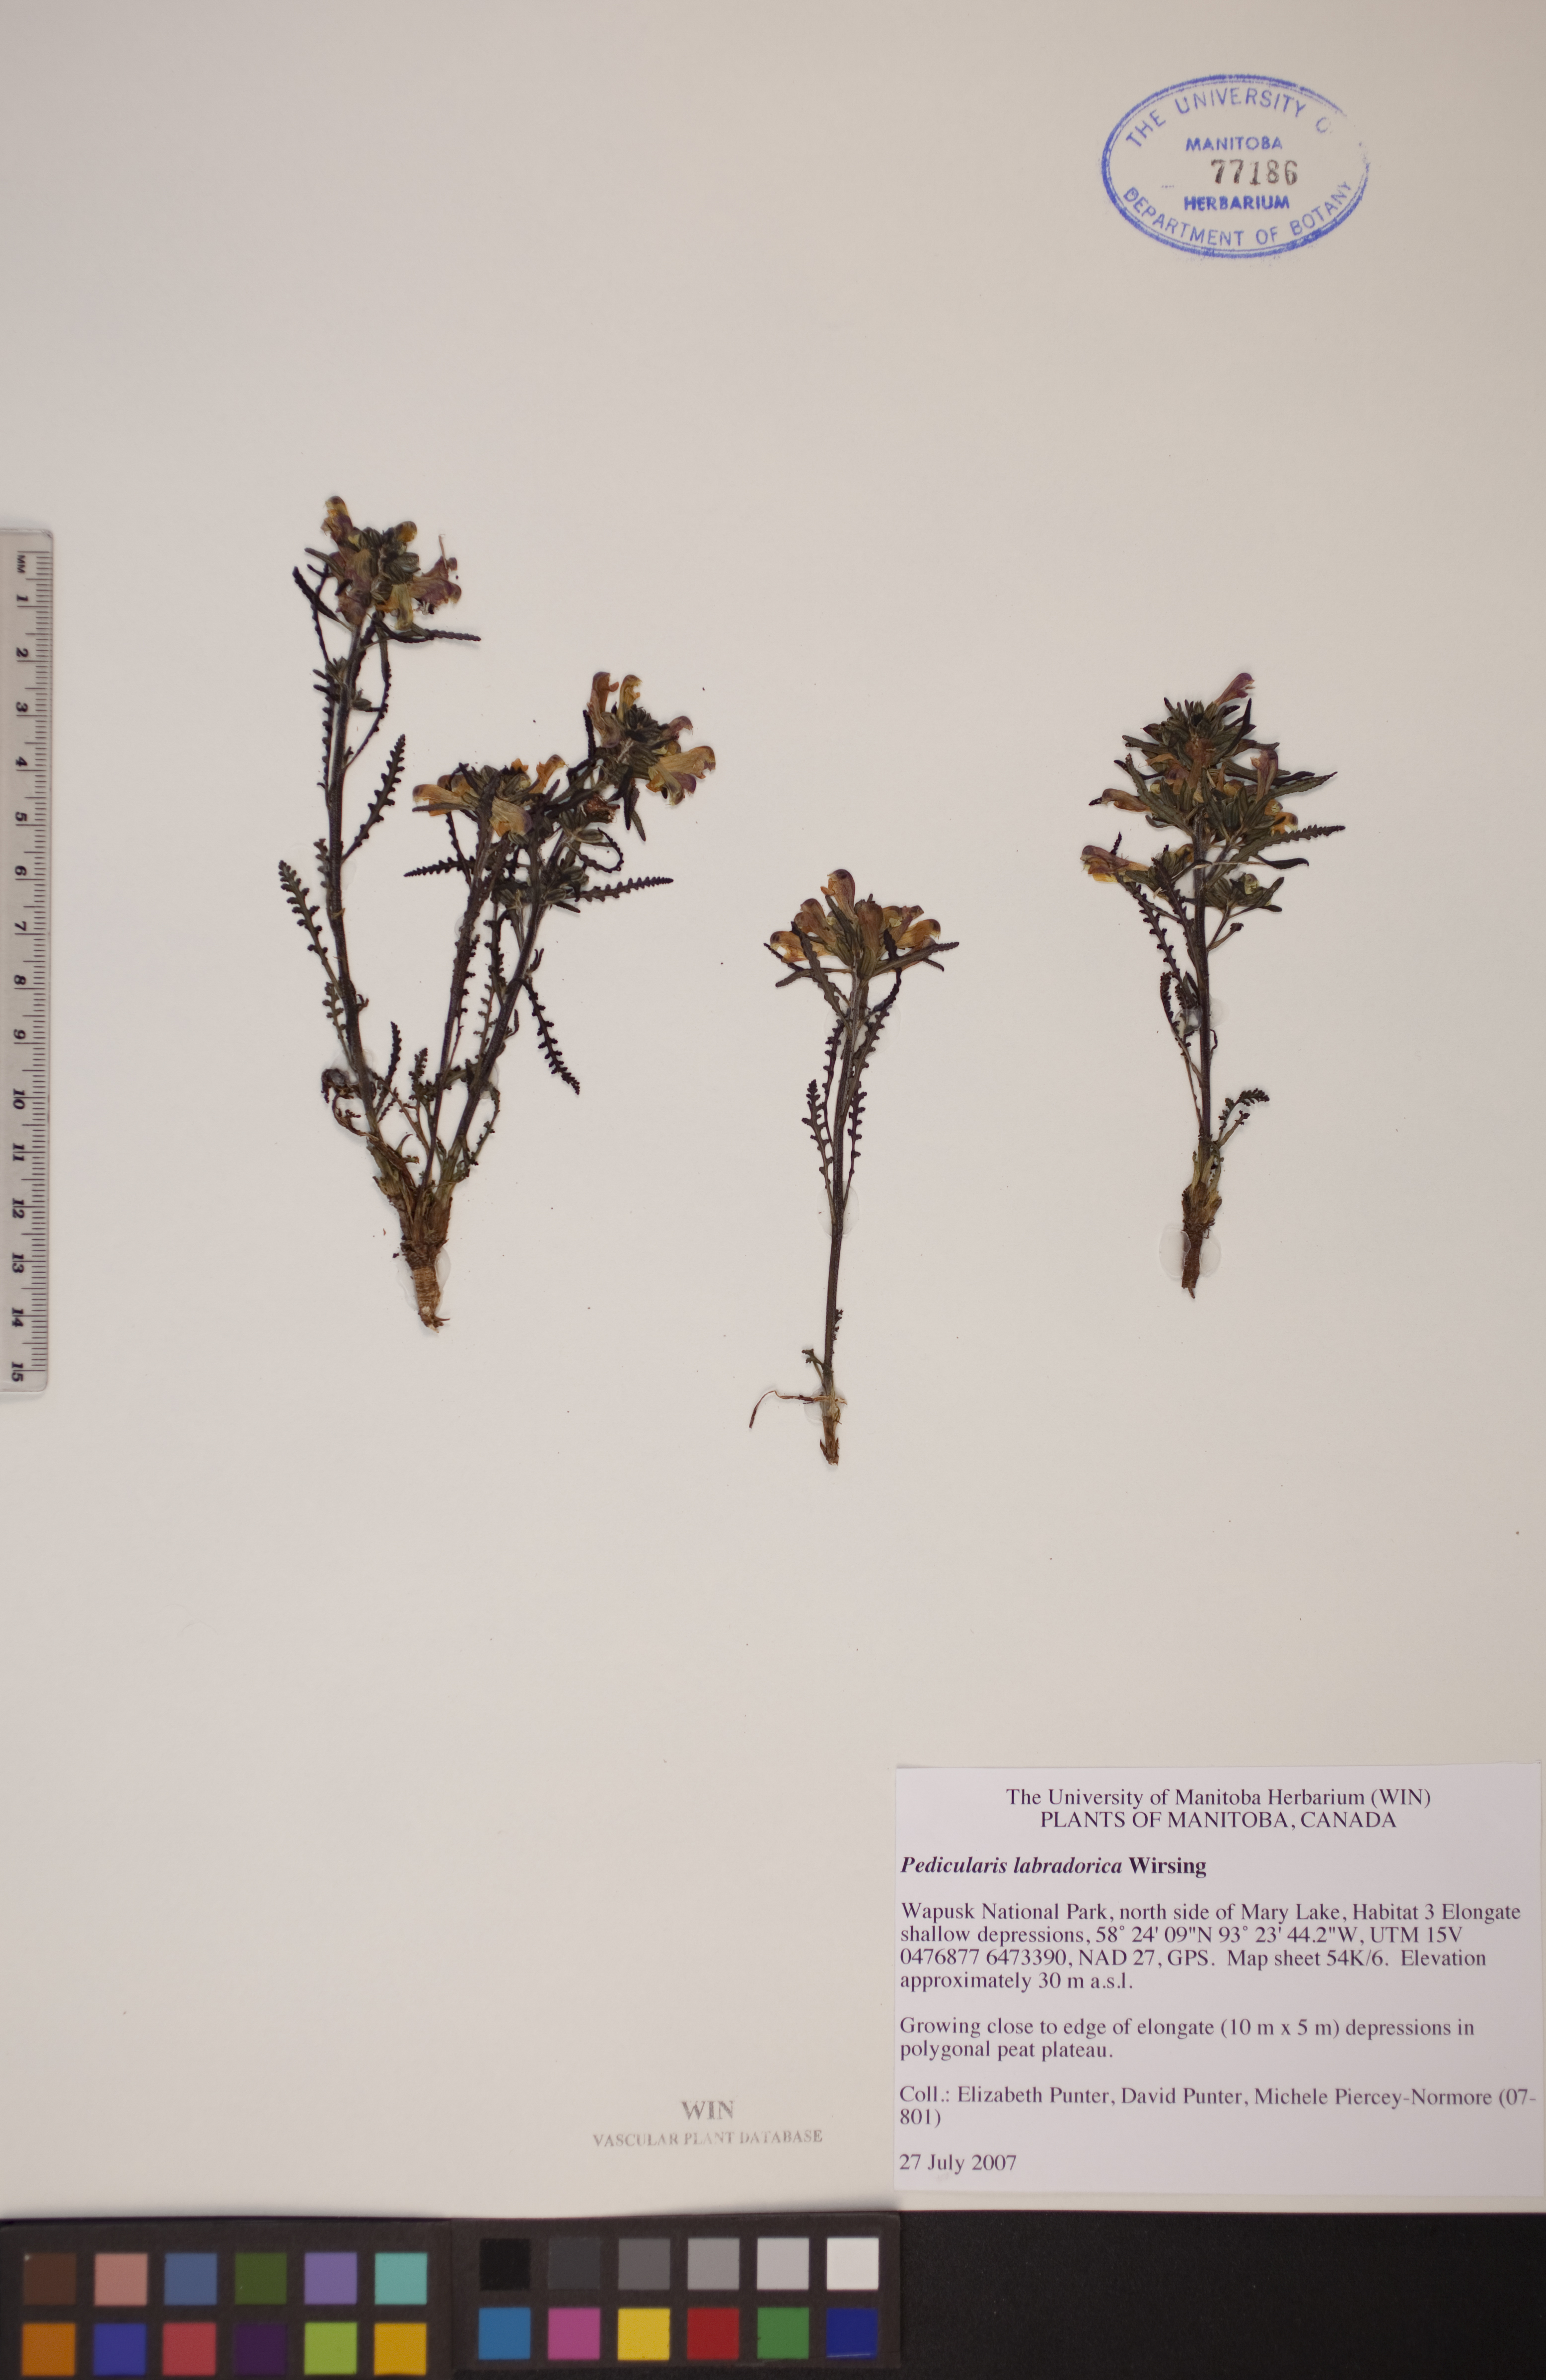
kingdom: Plantae
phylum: Tracheophyta
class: Magnoliopsida
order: Lamiales
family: Orobanchaceae
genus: Pedicularis
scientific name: Pedicularis labradorica
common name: Labrador lousewort
